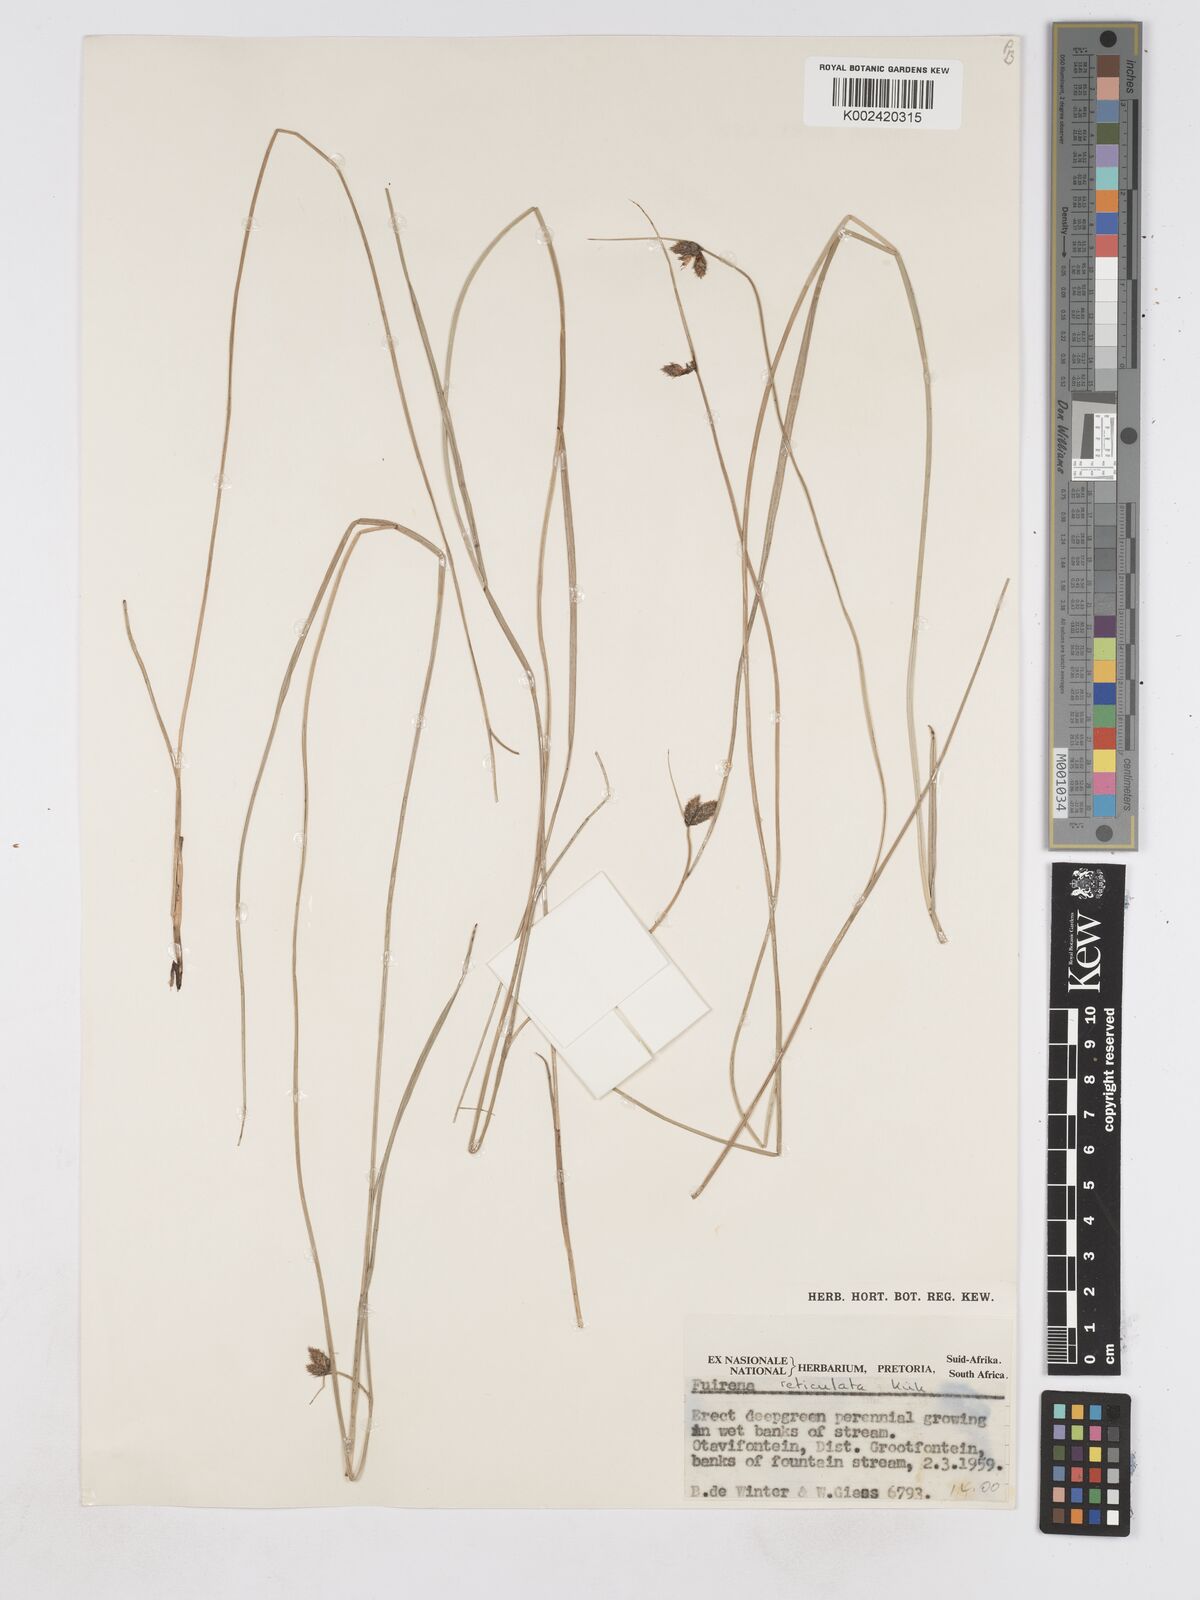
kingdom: Plantae
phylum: Tracheophyta
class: Liliopsida
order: Poales
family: Cyperaceae
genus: Fuirena
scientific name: Fuirena coerulescens
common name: Blue umbrella-sedge
